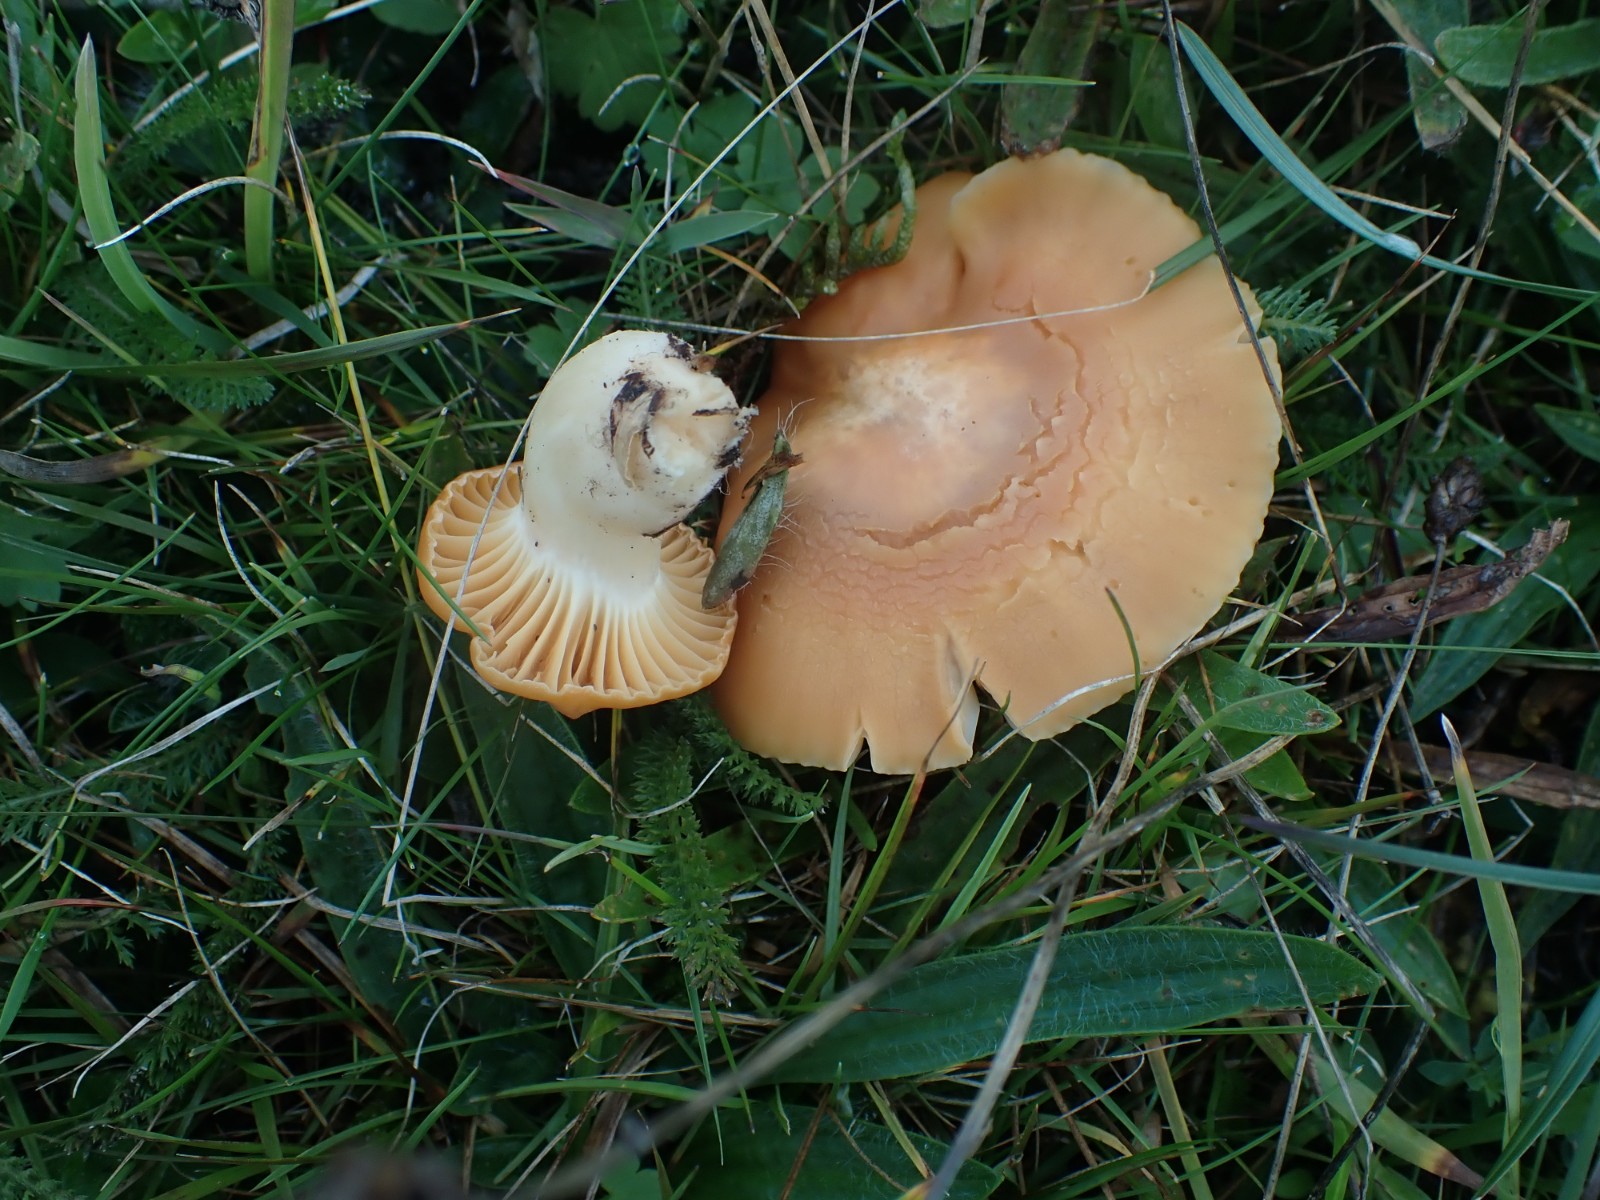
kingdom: Fungi
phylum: Basidiomycota
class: Agaricomycetes
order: Agaricales
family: Hygrophoraceae
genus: Cuphophyllus
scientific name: Cuphophyllus pratensis
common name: eng-vokshat
